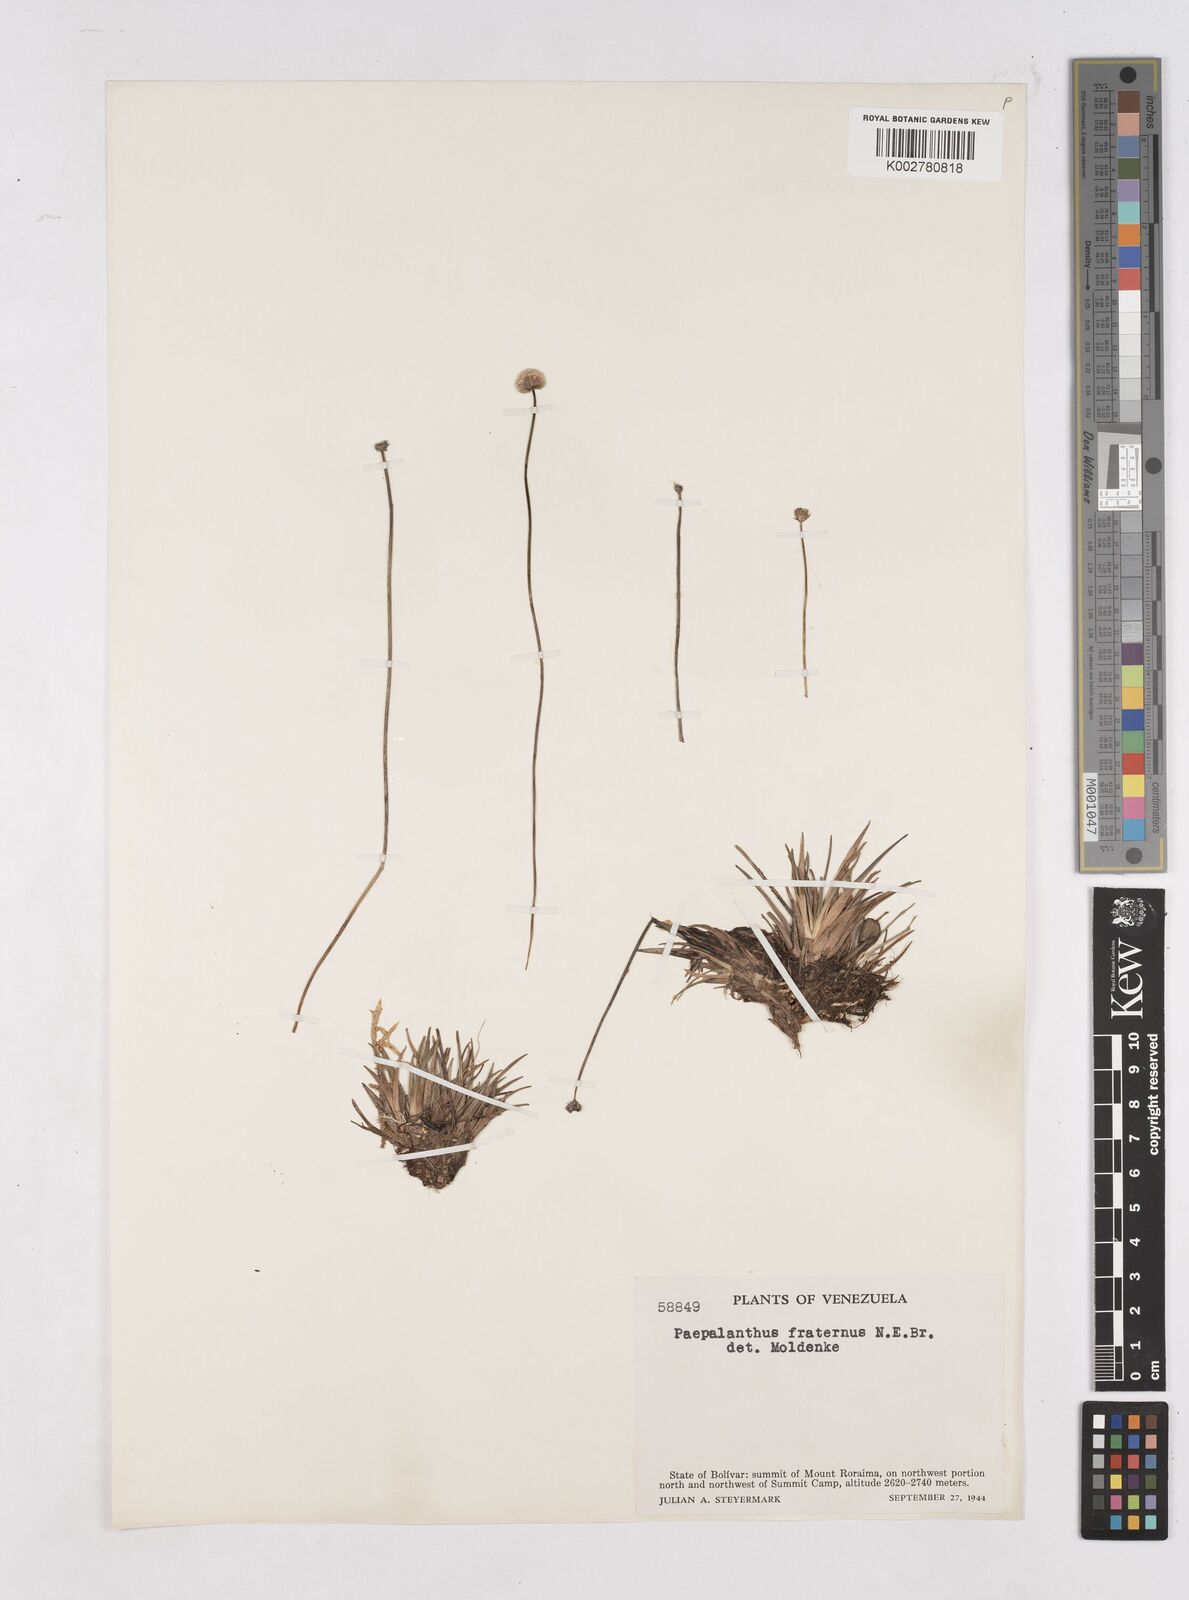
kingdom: Plantae
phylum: Tracheophyta
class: Liliopsida
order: Poales
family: Eriocaulaceae
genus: Paepalanthus
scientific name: Paepalanthus fraternus
